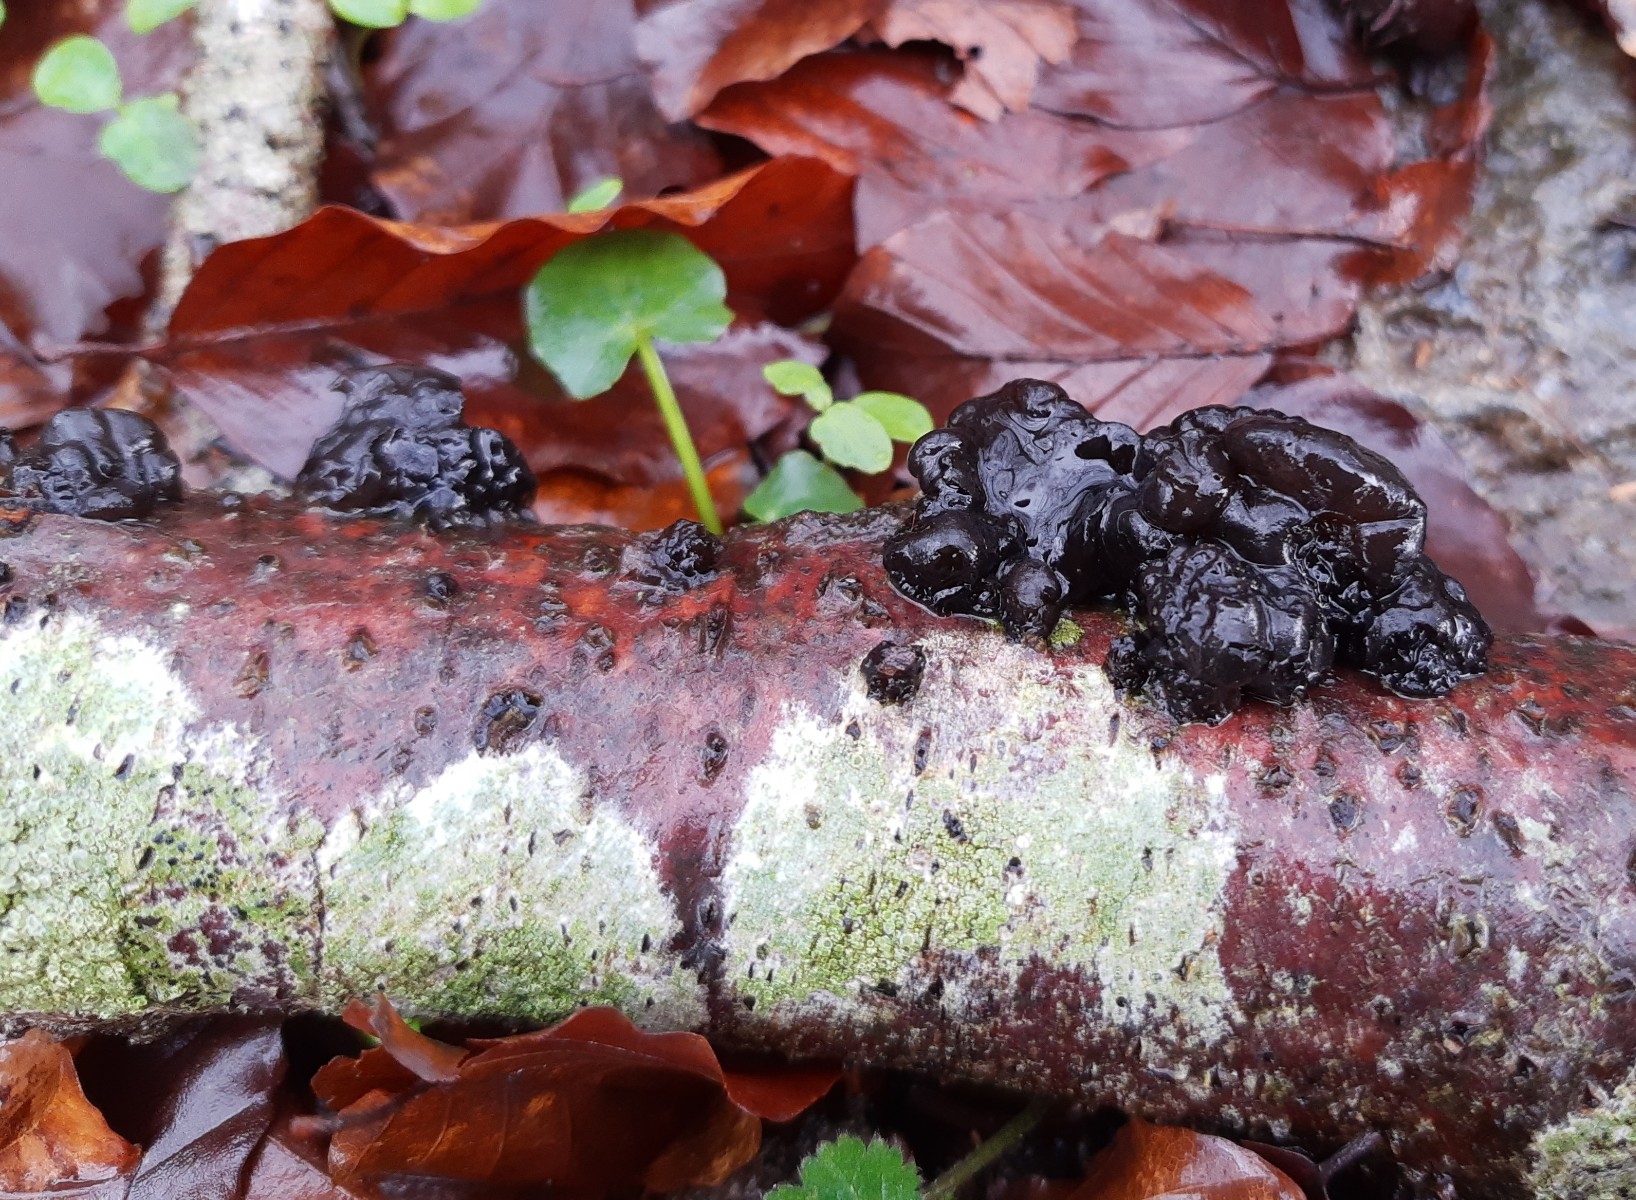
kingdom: Fungi
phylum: Basidiomycota
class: Agaricomycetes
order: Auriculariales
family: Auriculariaceae
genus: Exidia
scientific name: Exidia nigricans
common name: almindelig bævretop
